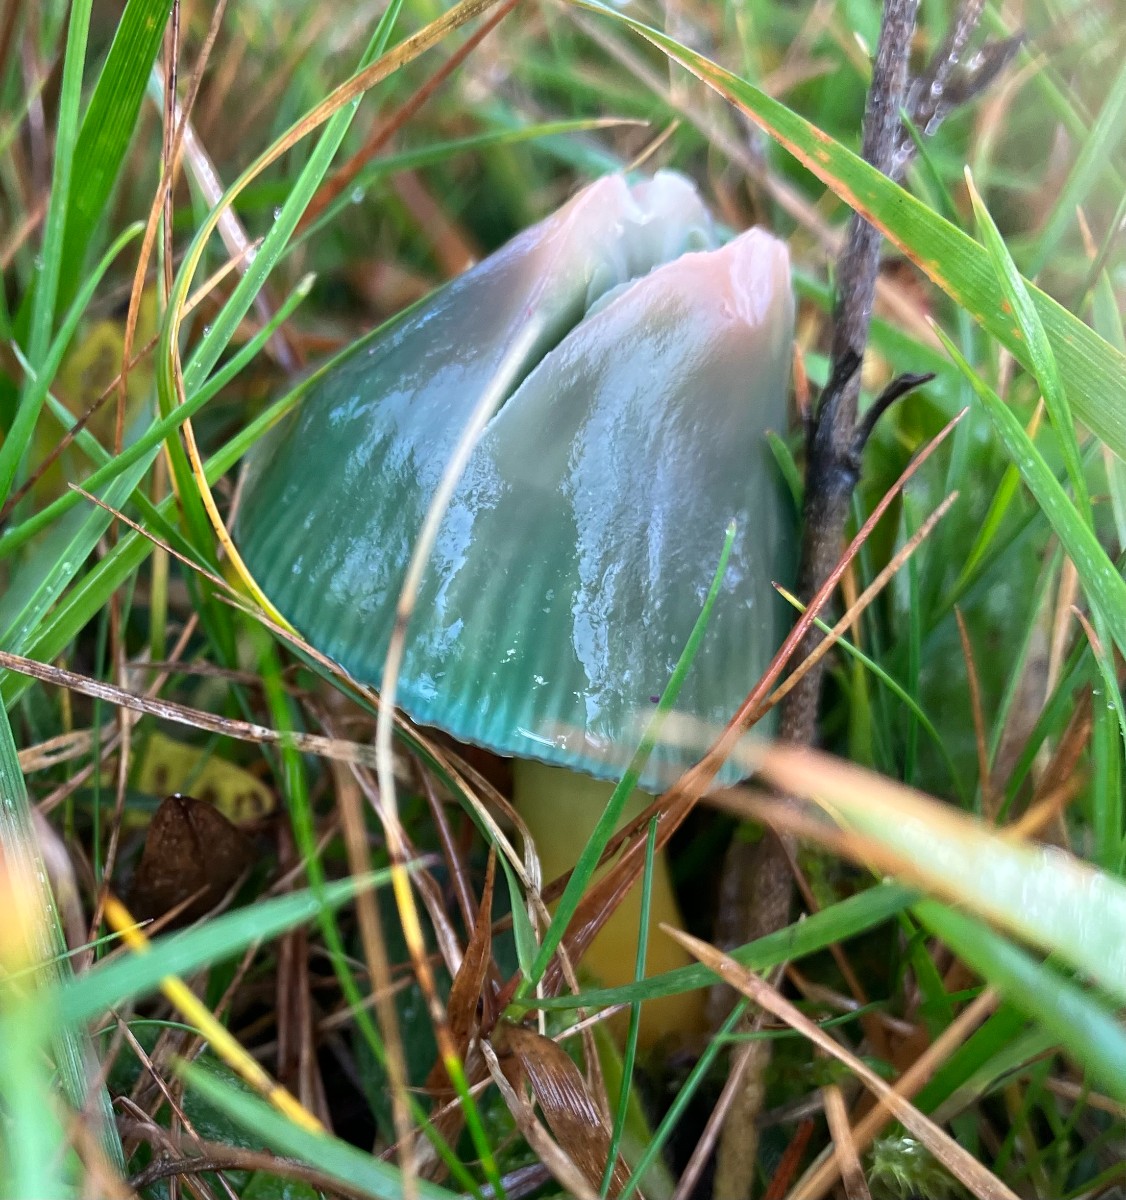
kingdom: Fungi
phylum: Basidiomycota
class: Agaricomycetes
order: Agaricales
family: Hygrophoraceae
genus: Gliophorus
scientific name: Gliophorus psittacinus
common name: papegøje-vokshat
